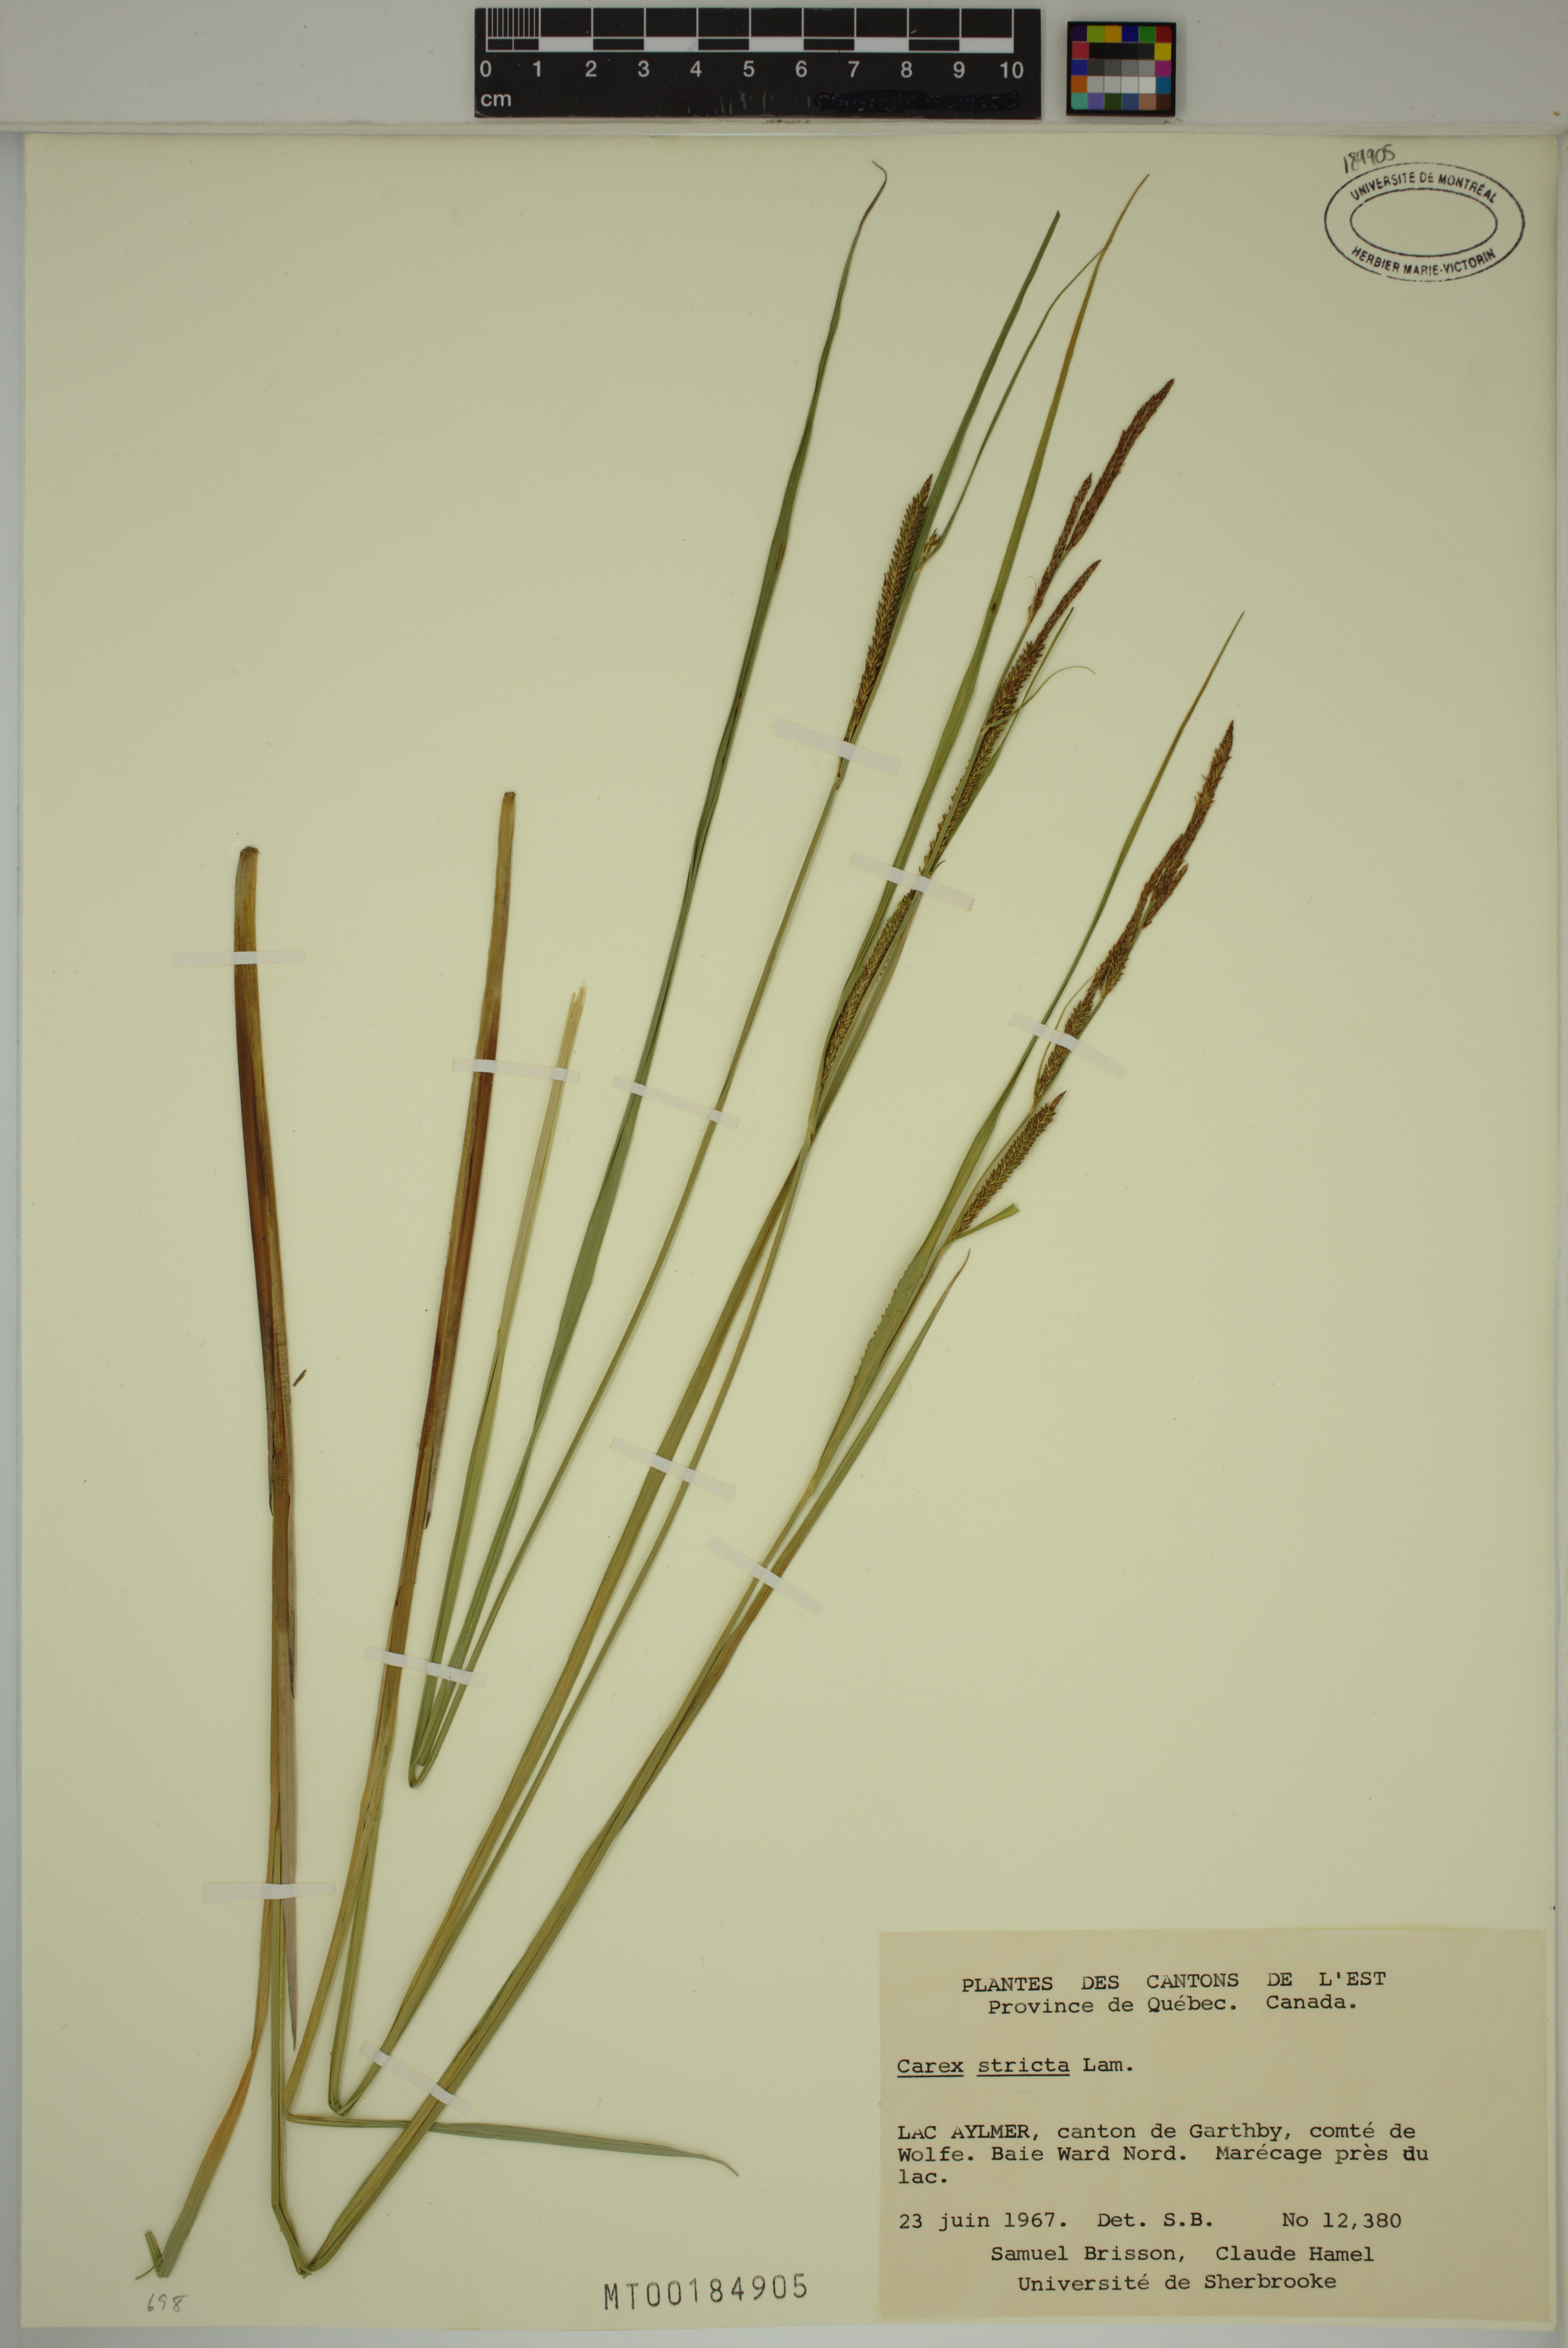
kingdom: Plantae
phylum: Tracheophyta
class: Liliopsida
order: Poales
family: Cyperaceae
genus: Carex
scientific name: Carex stricta
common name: Hummock sedge
